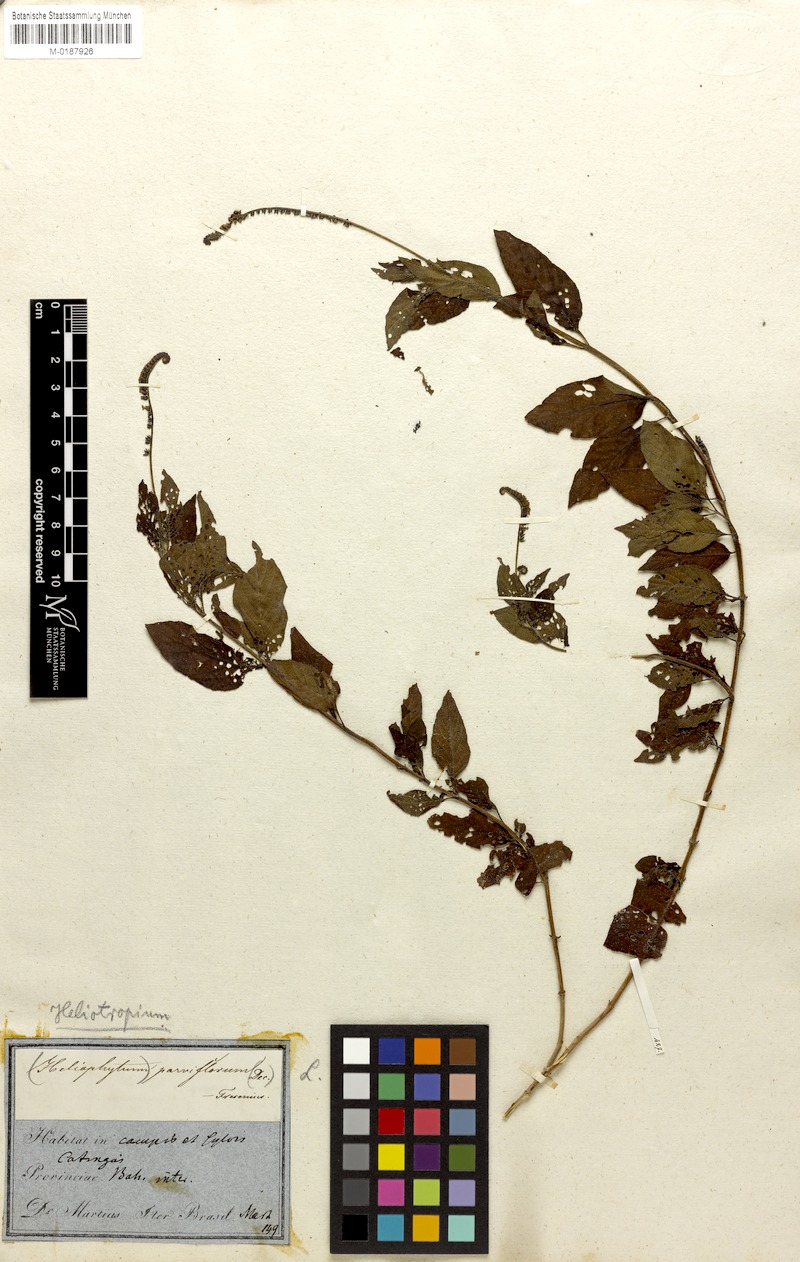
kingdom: Plantae
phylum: Tracheophyta
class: Magnoliopsida
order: Boraginales
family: Heliotropiaceae
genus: Heliotropium
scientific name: Heliotropium angiospermum
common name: Eye bright
